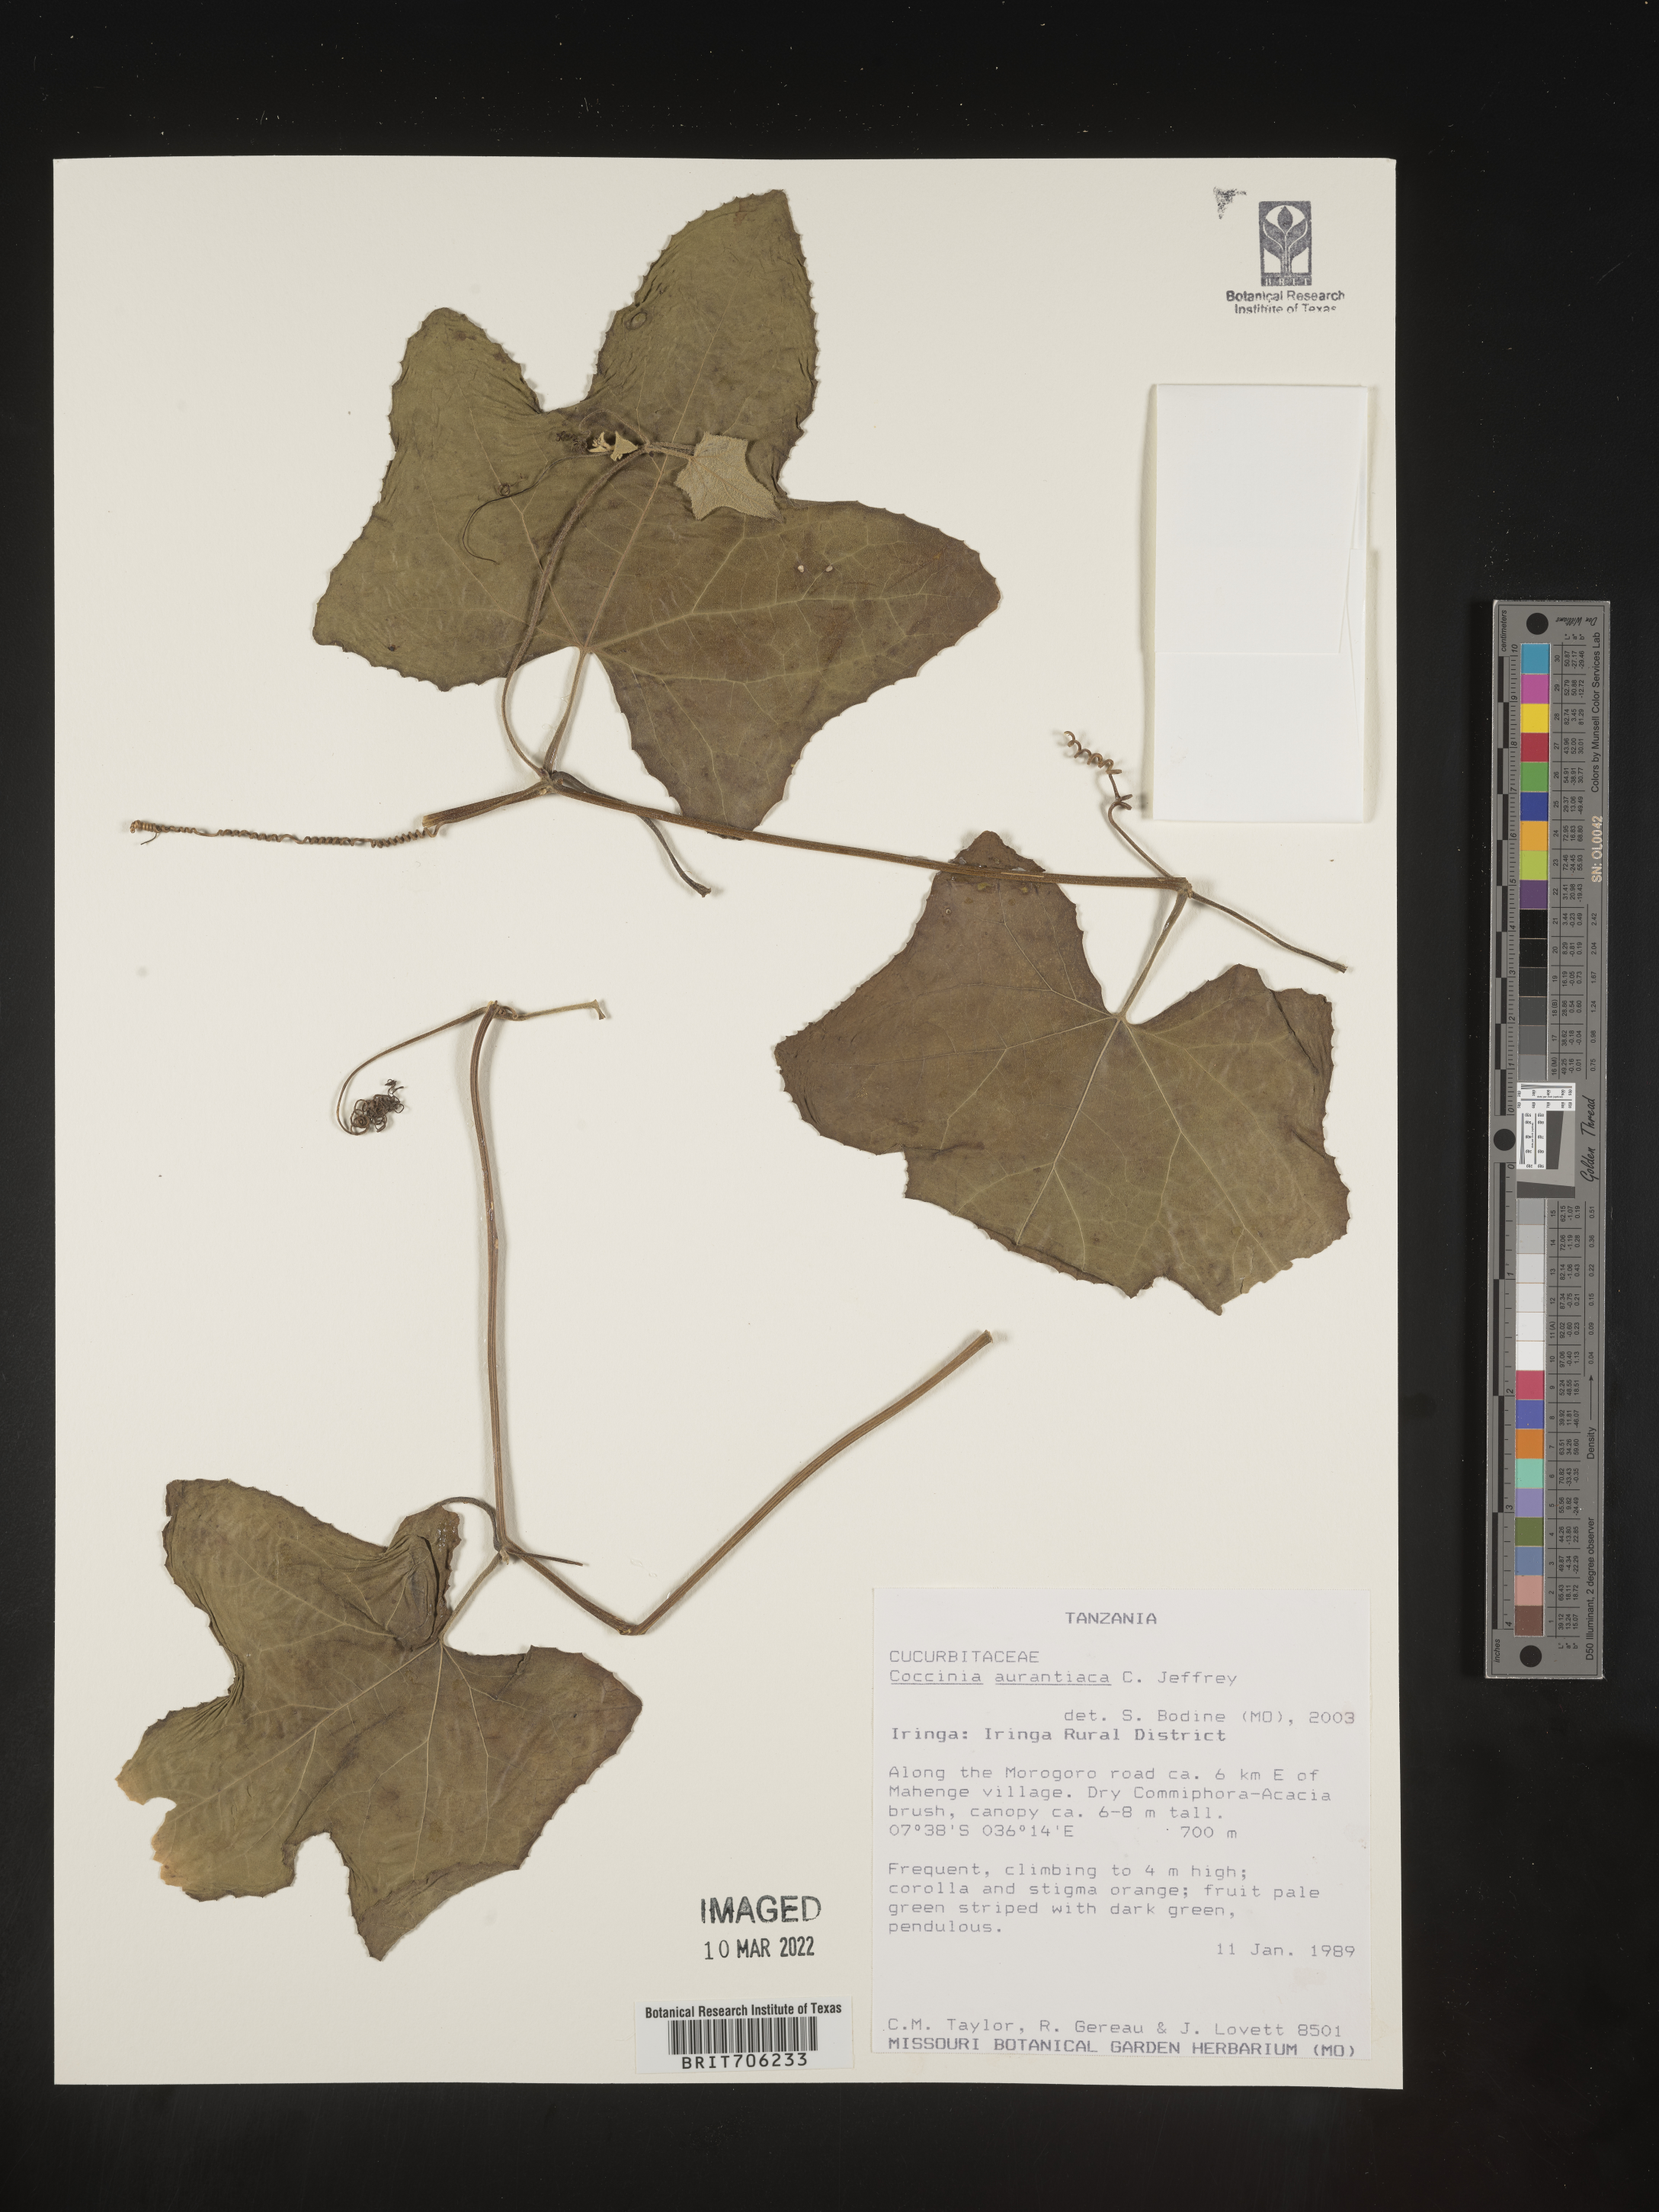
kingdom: Plantae
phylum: Tracheophyta
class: Magnoliopsida
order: Cucurbitales
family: Cucurbitaceae
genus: Coccinia
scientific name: Coccinia
